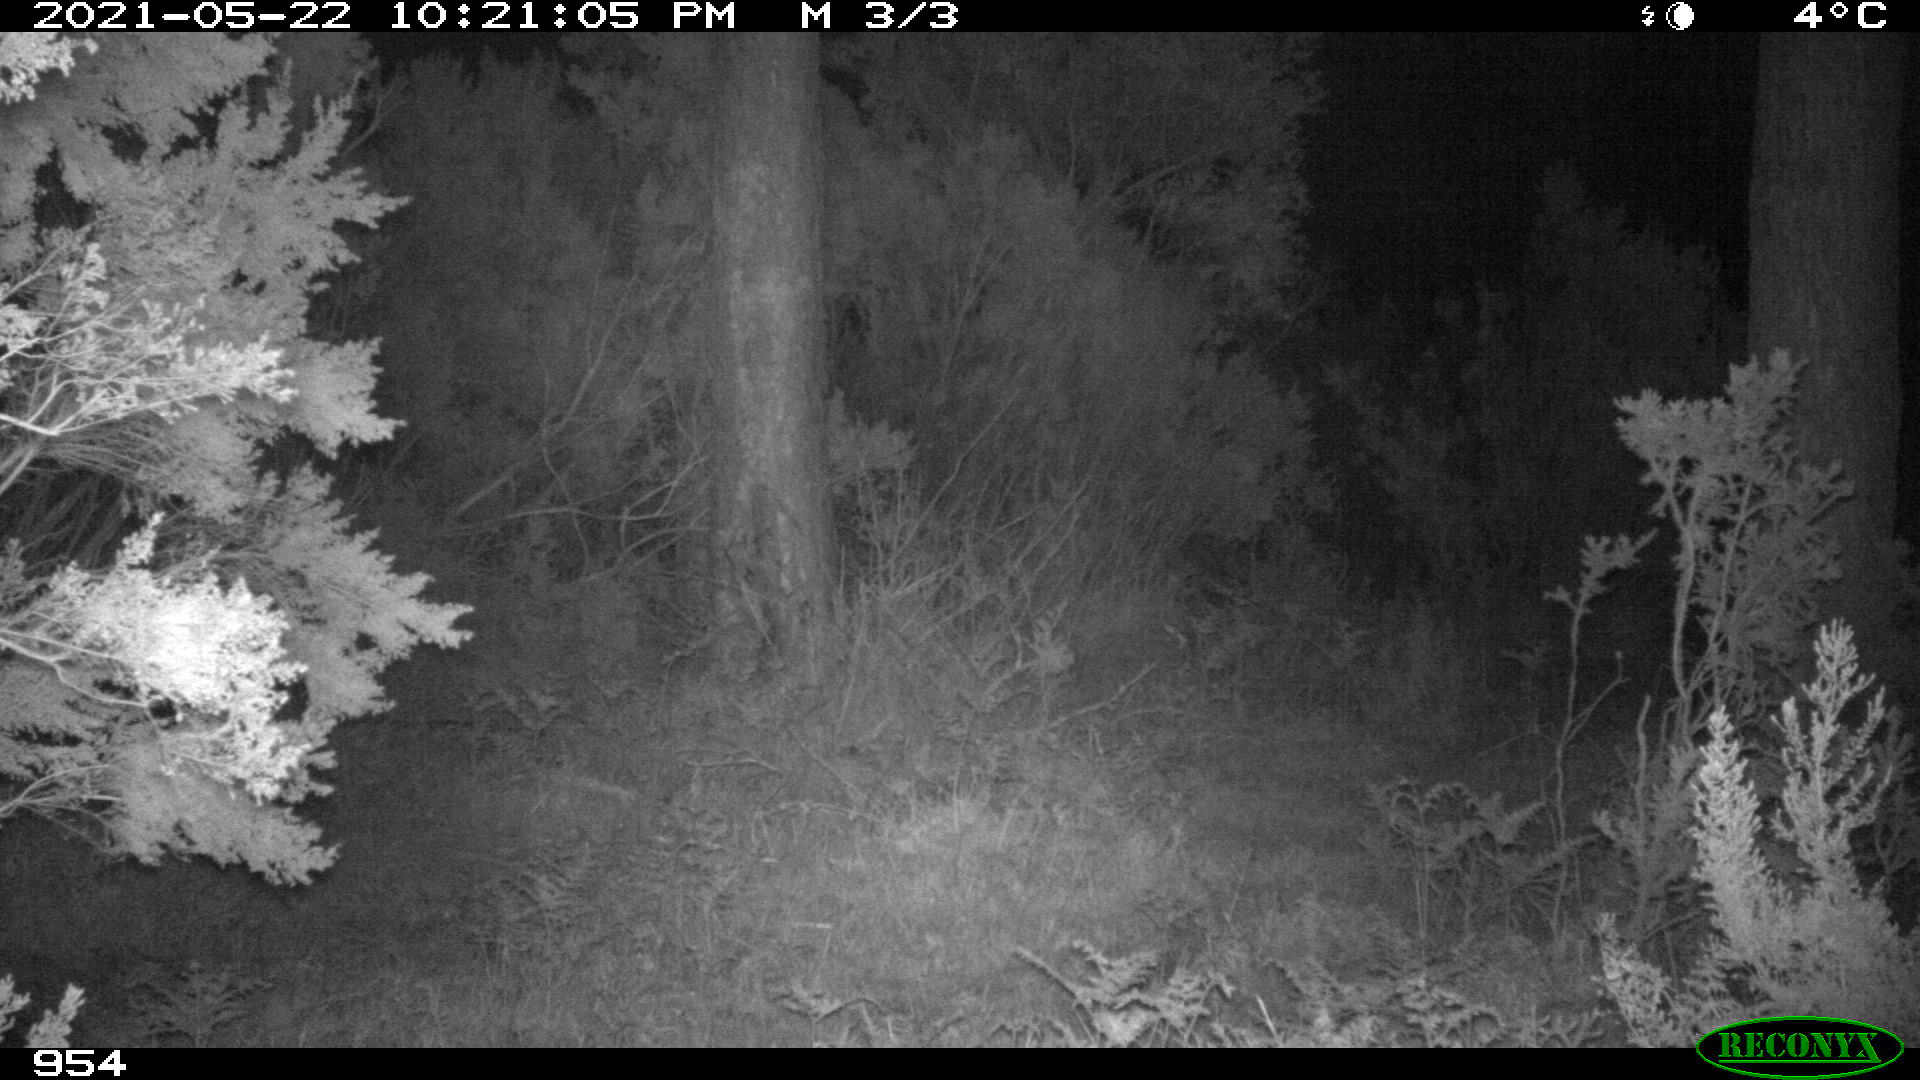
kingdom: Animalia
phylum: Chordata
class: Mammalia
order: Artiodactyla
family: Cervidae
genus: Capreolus
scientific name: Capreolus capreolus
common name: Western roe deer
